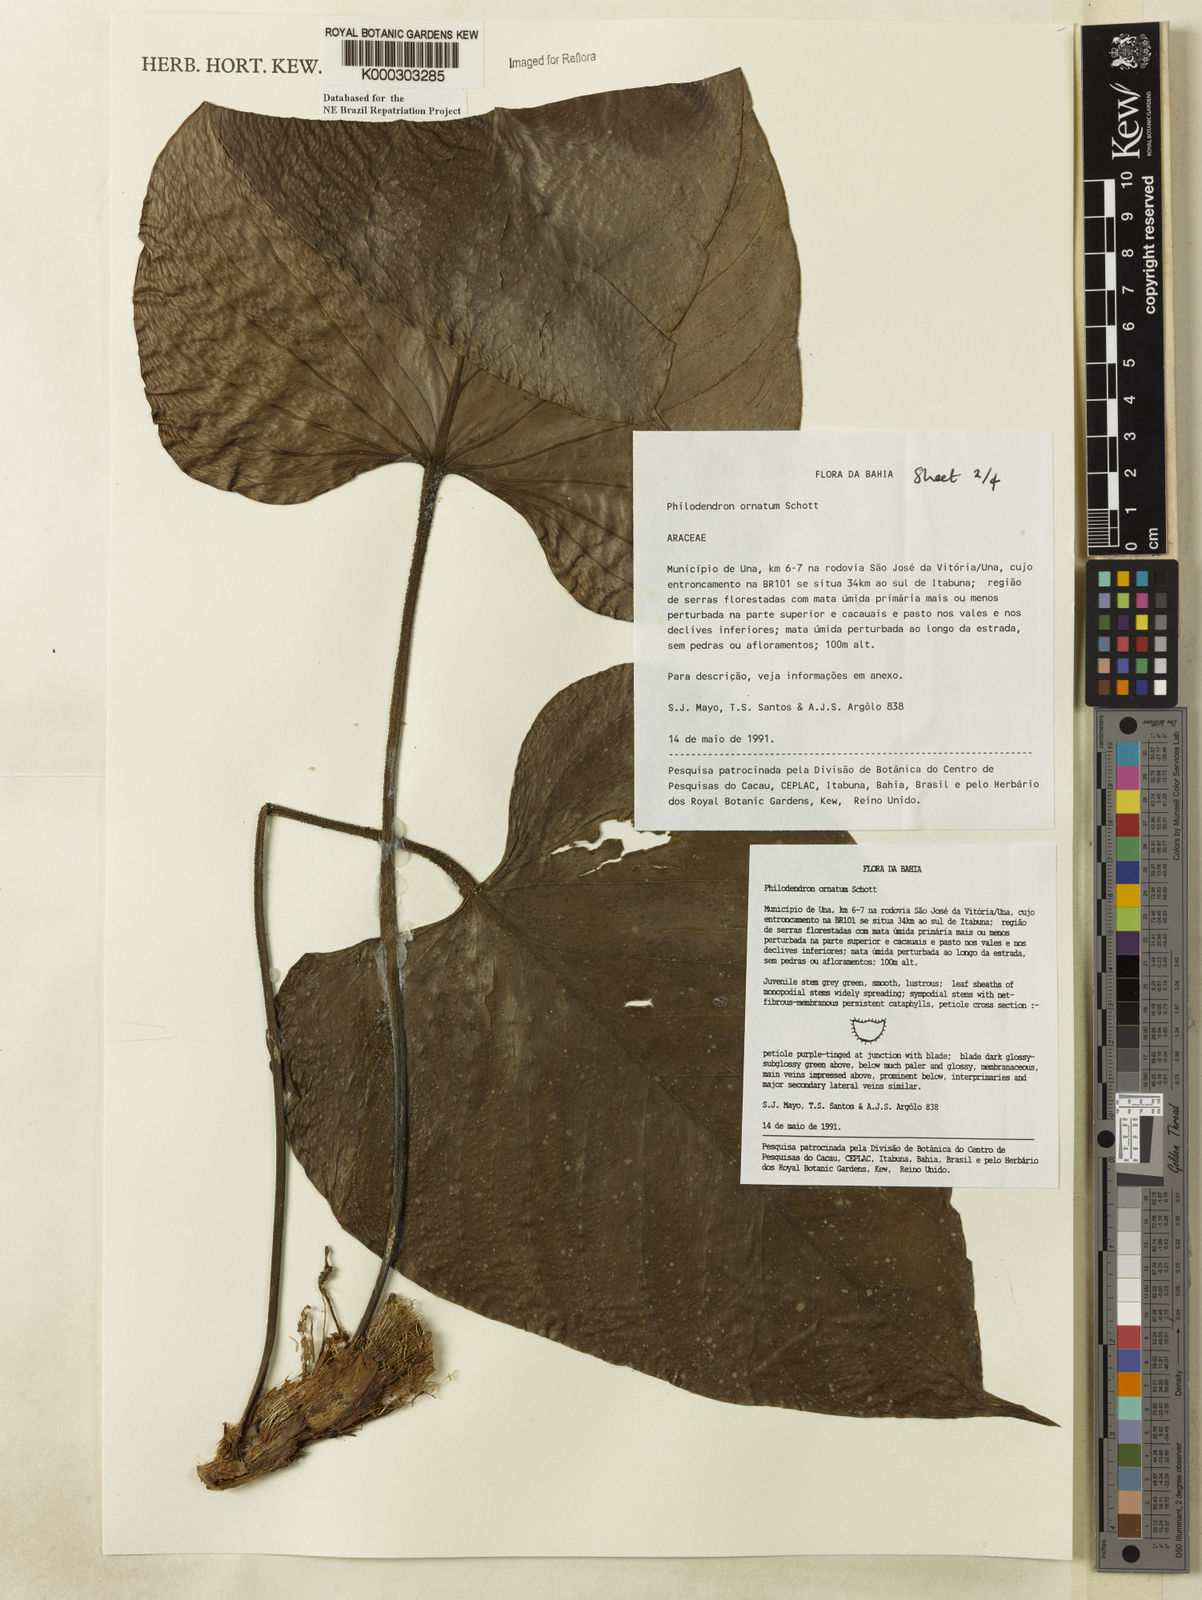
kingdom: Plantae
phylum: Tracheophyta
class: Liliopsida
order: Alismatales
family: Araceae
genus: Philodendron
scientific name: Philodendron ornatum
